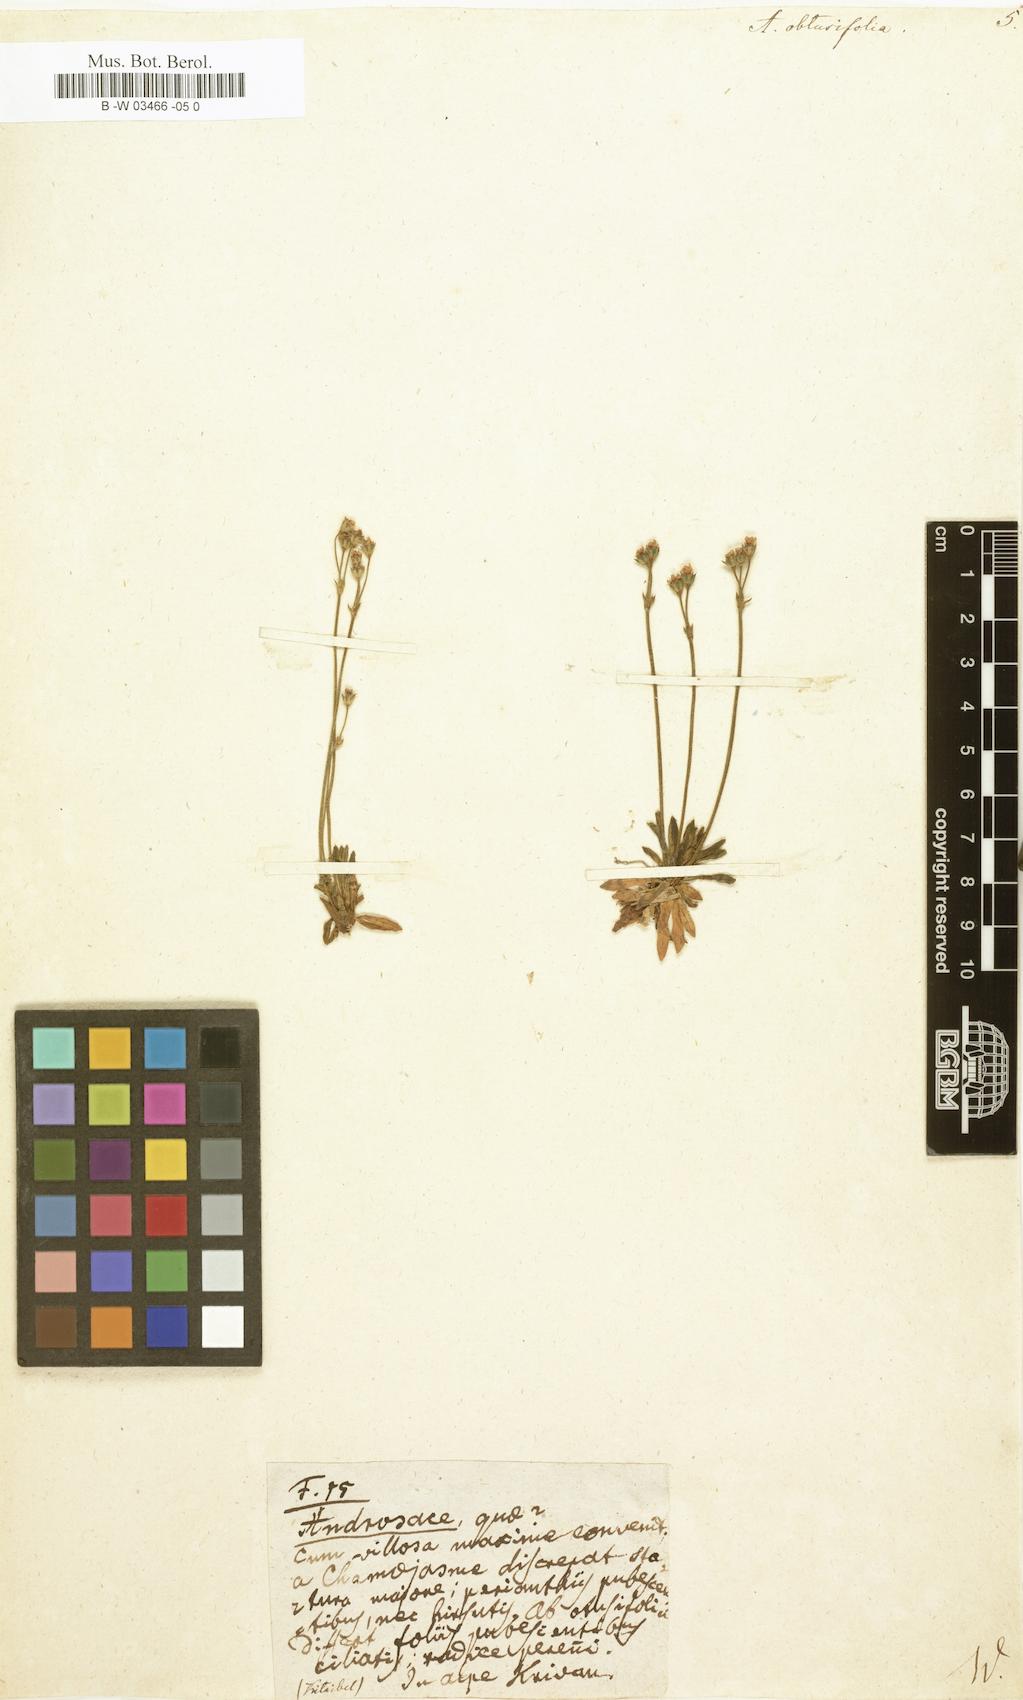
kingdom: Plantae
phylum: Tracheophyta
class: Magnoliopsida
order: Ericales
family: Primulaceae
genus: Androsace
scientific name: Androsace obtusifolia
